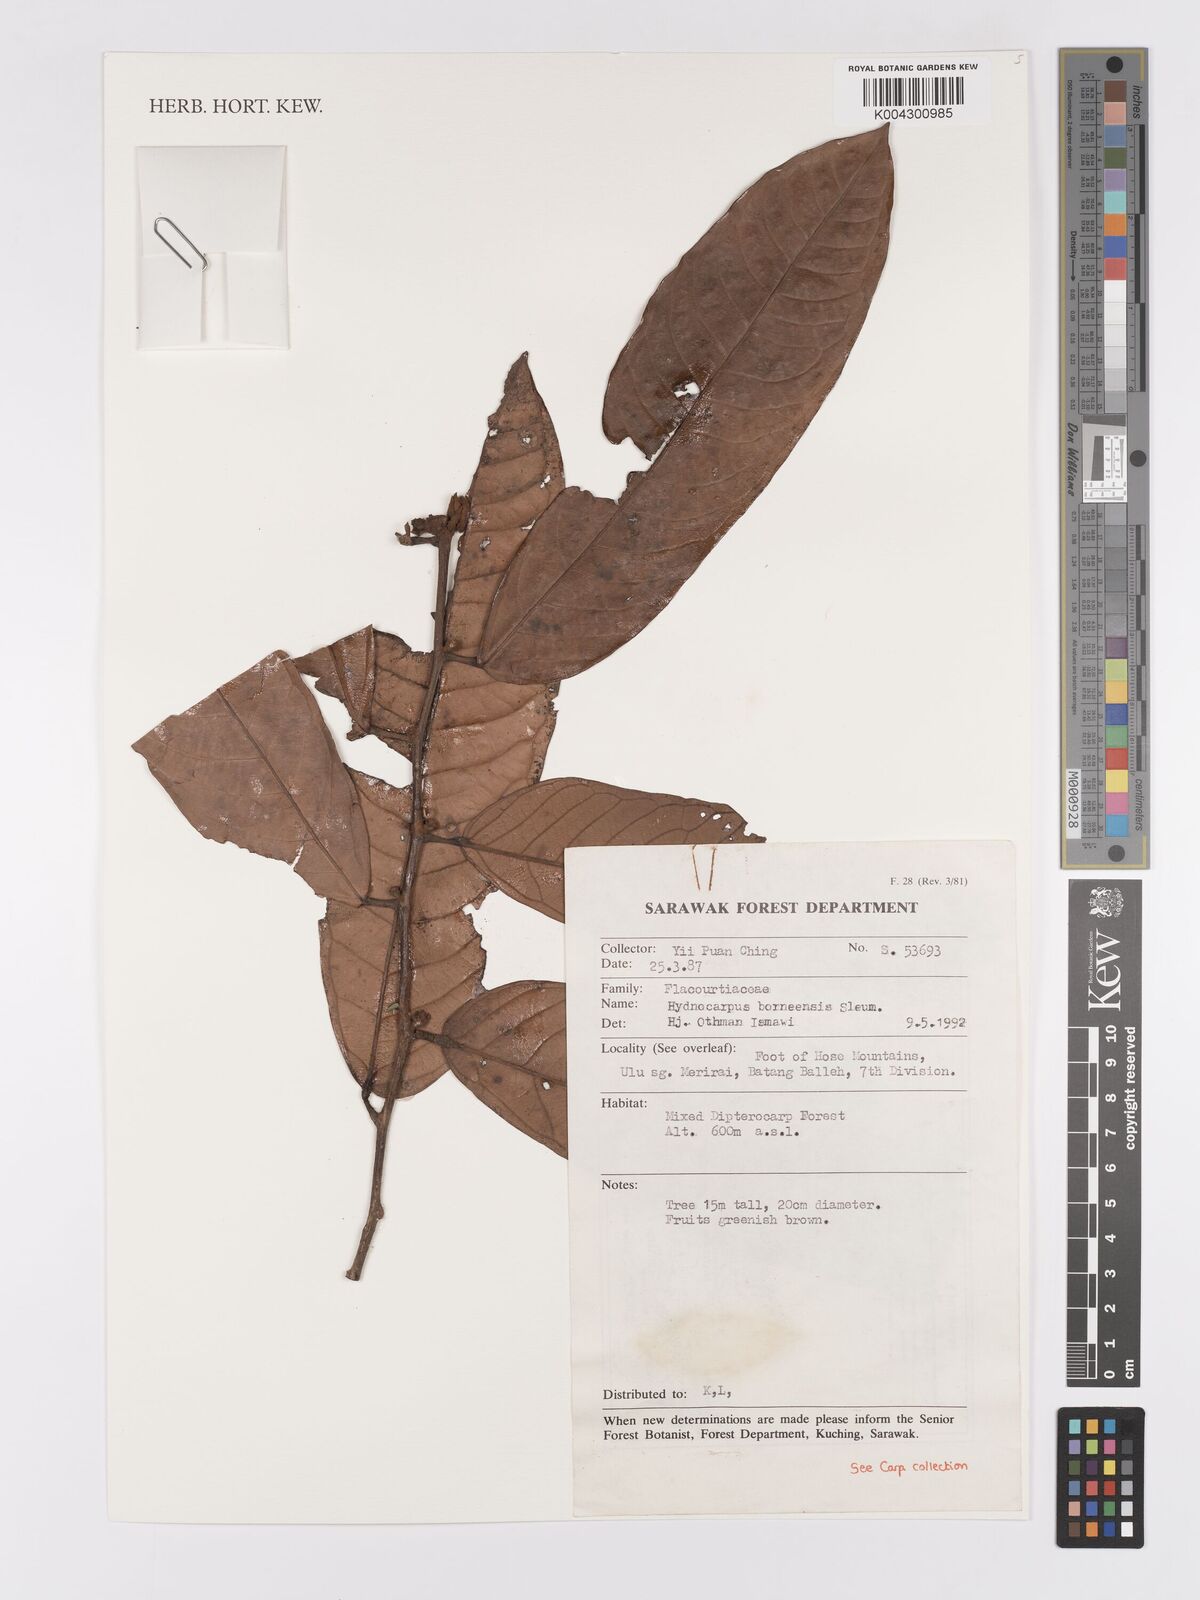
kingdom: Plantae
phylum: Tracheophyta
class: Magnoliopsida
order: Malpighiales
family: Achariaceae
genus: Hydnocarpus
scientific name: Hydnocarpus borneensis
